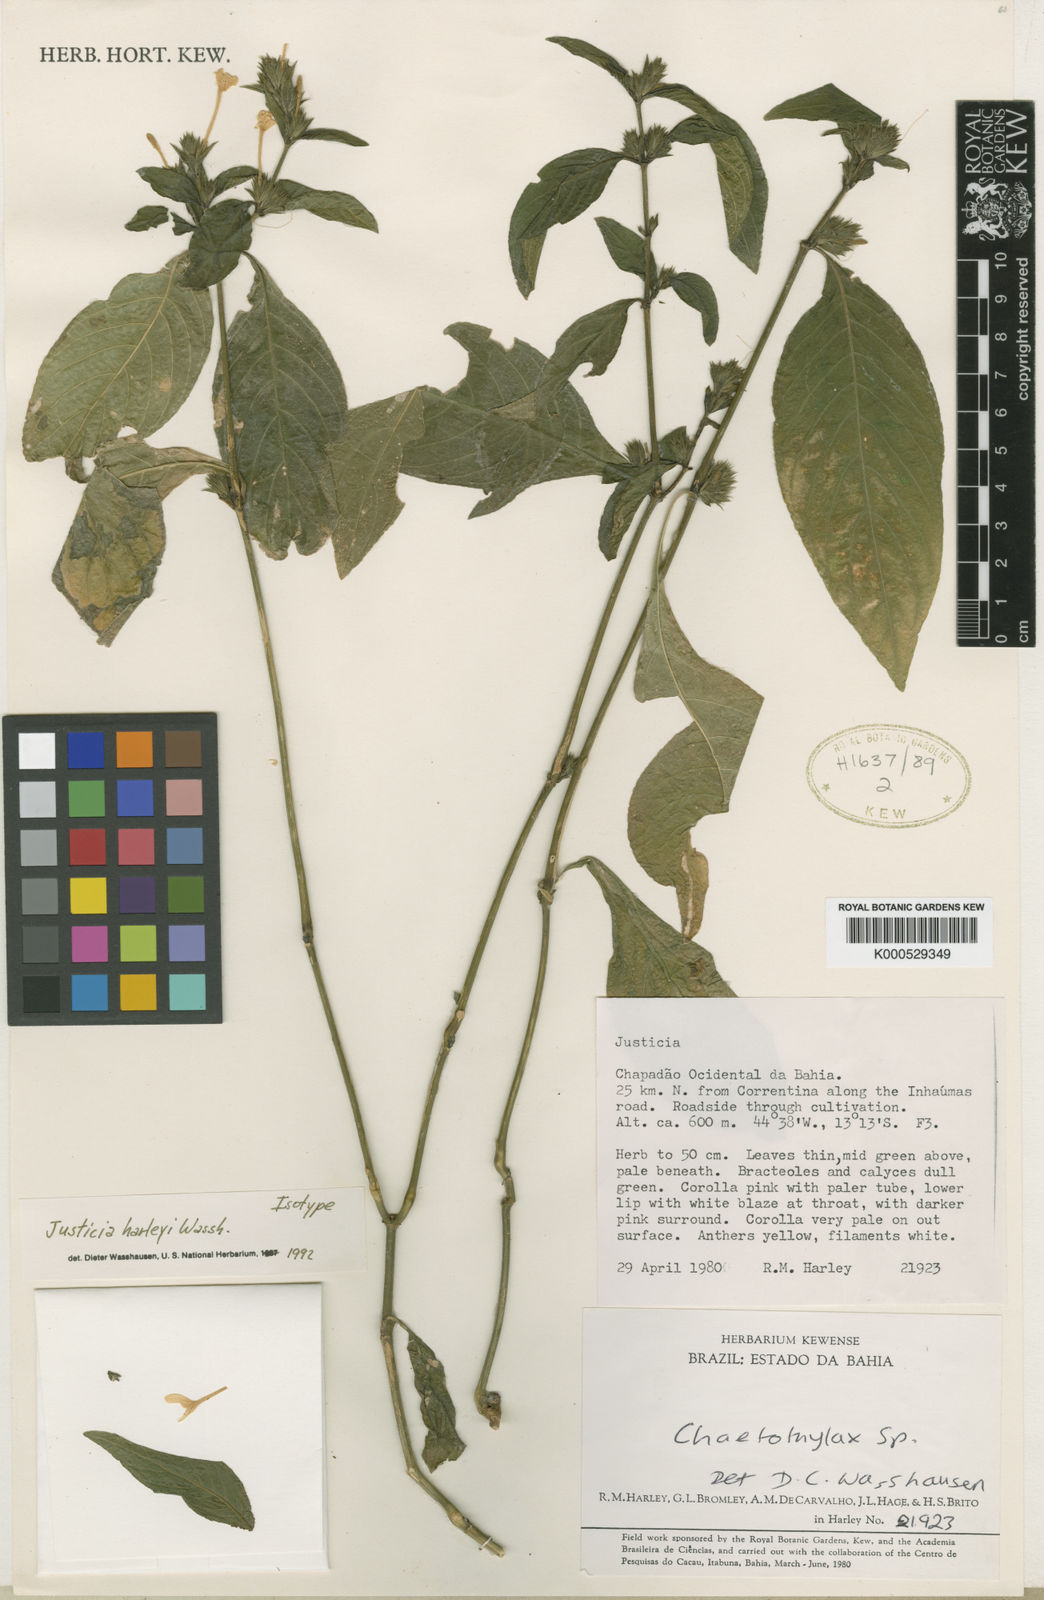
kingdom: Plantae
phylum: Tracheophyta
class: Magnoliopsida
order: Lamiales
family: Acanthaceae
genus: Justicia
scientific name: Justicia harleyi
